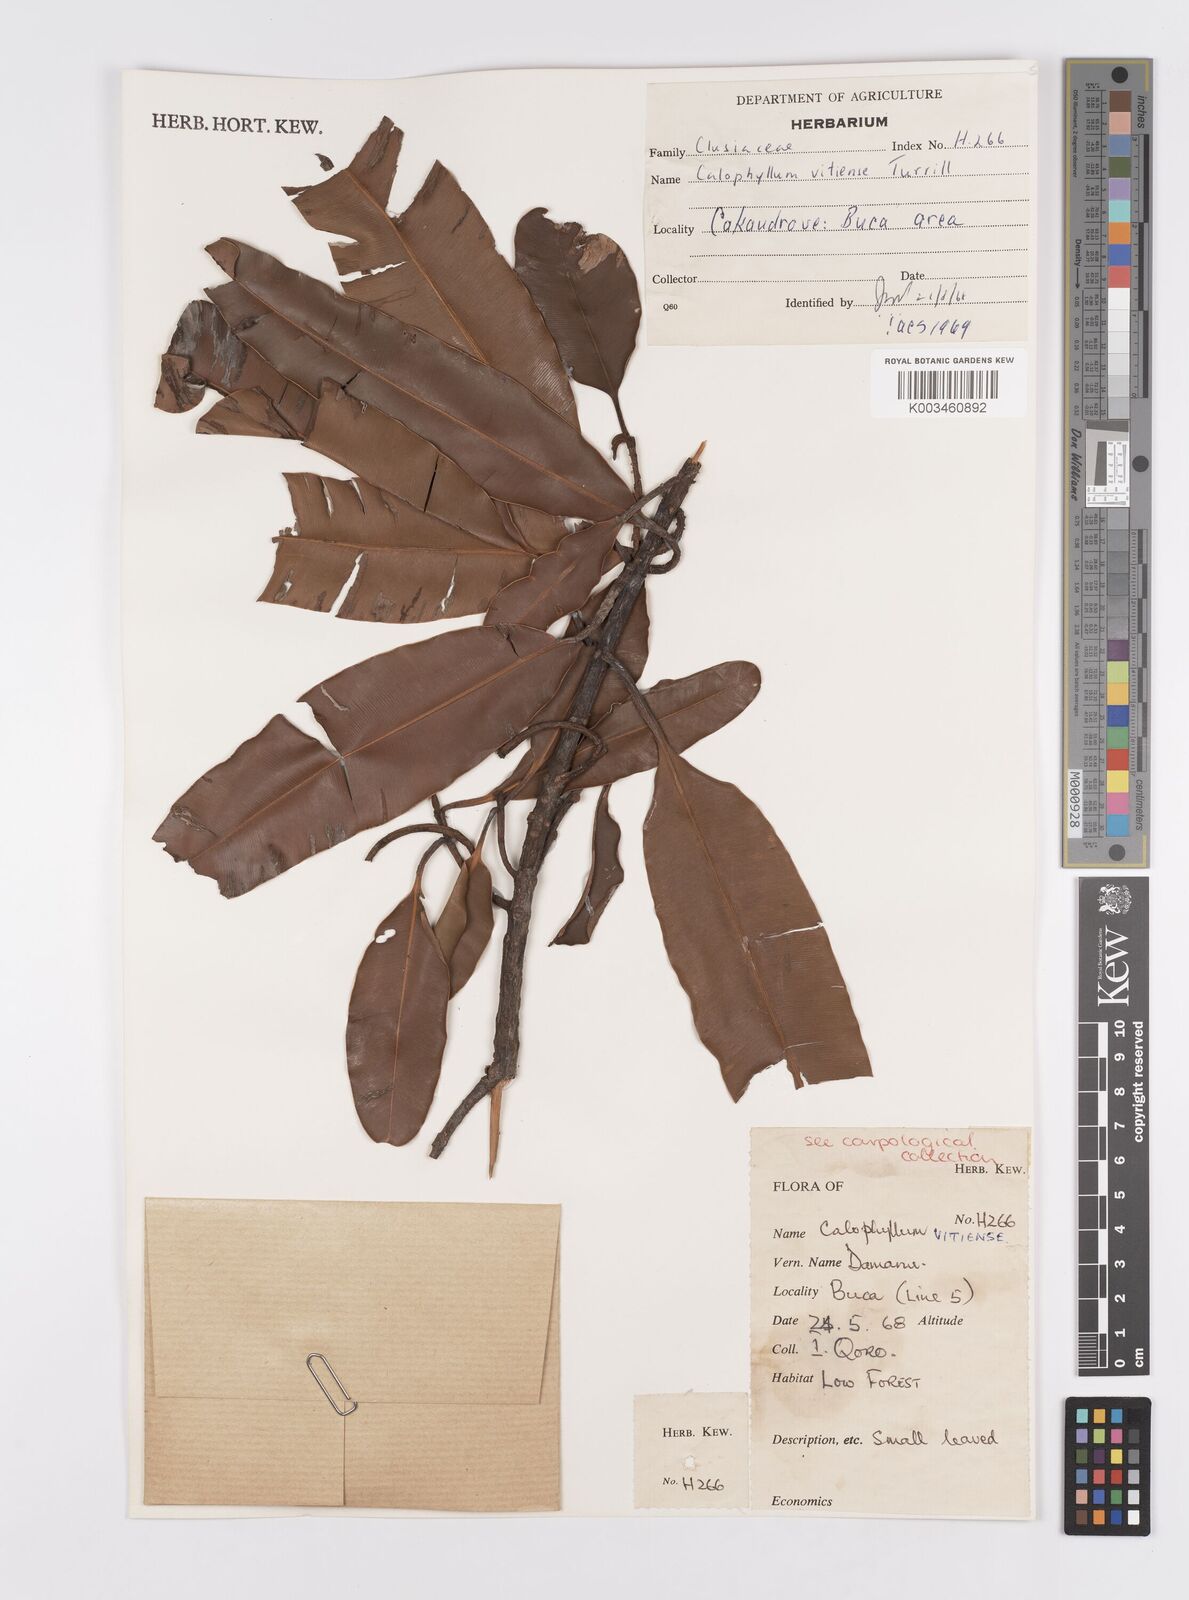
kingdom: Plantae
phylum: Tracheophyta
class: Magnoliopsida
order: Malpighiales
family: Calophyllaceae
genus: Calophyllum
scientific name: Calophyllum vitiense
